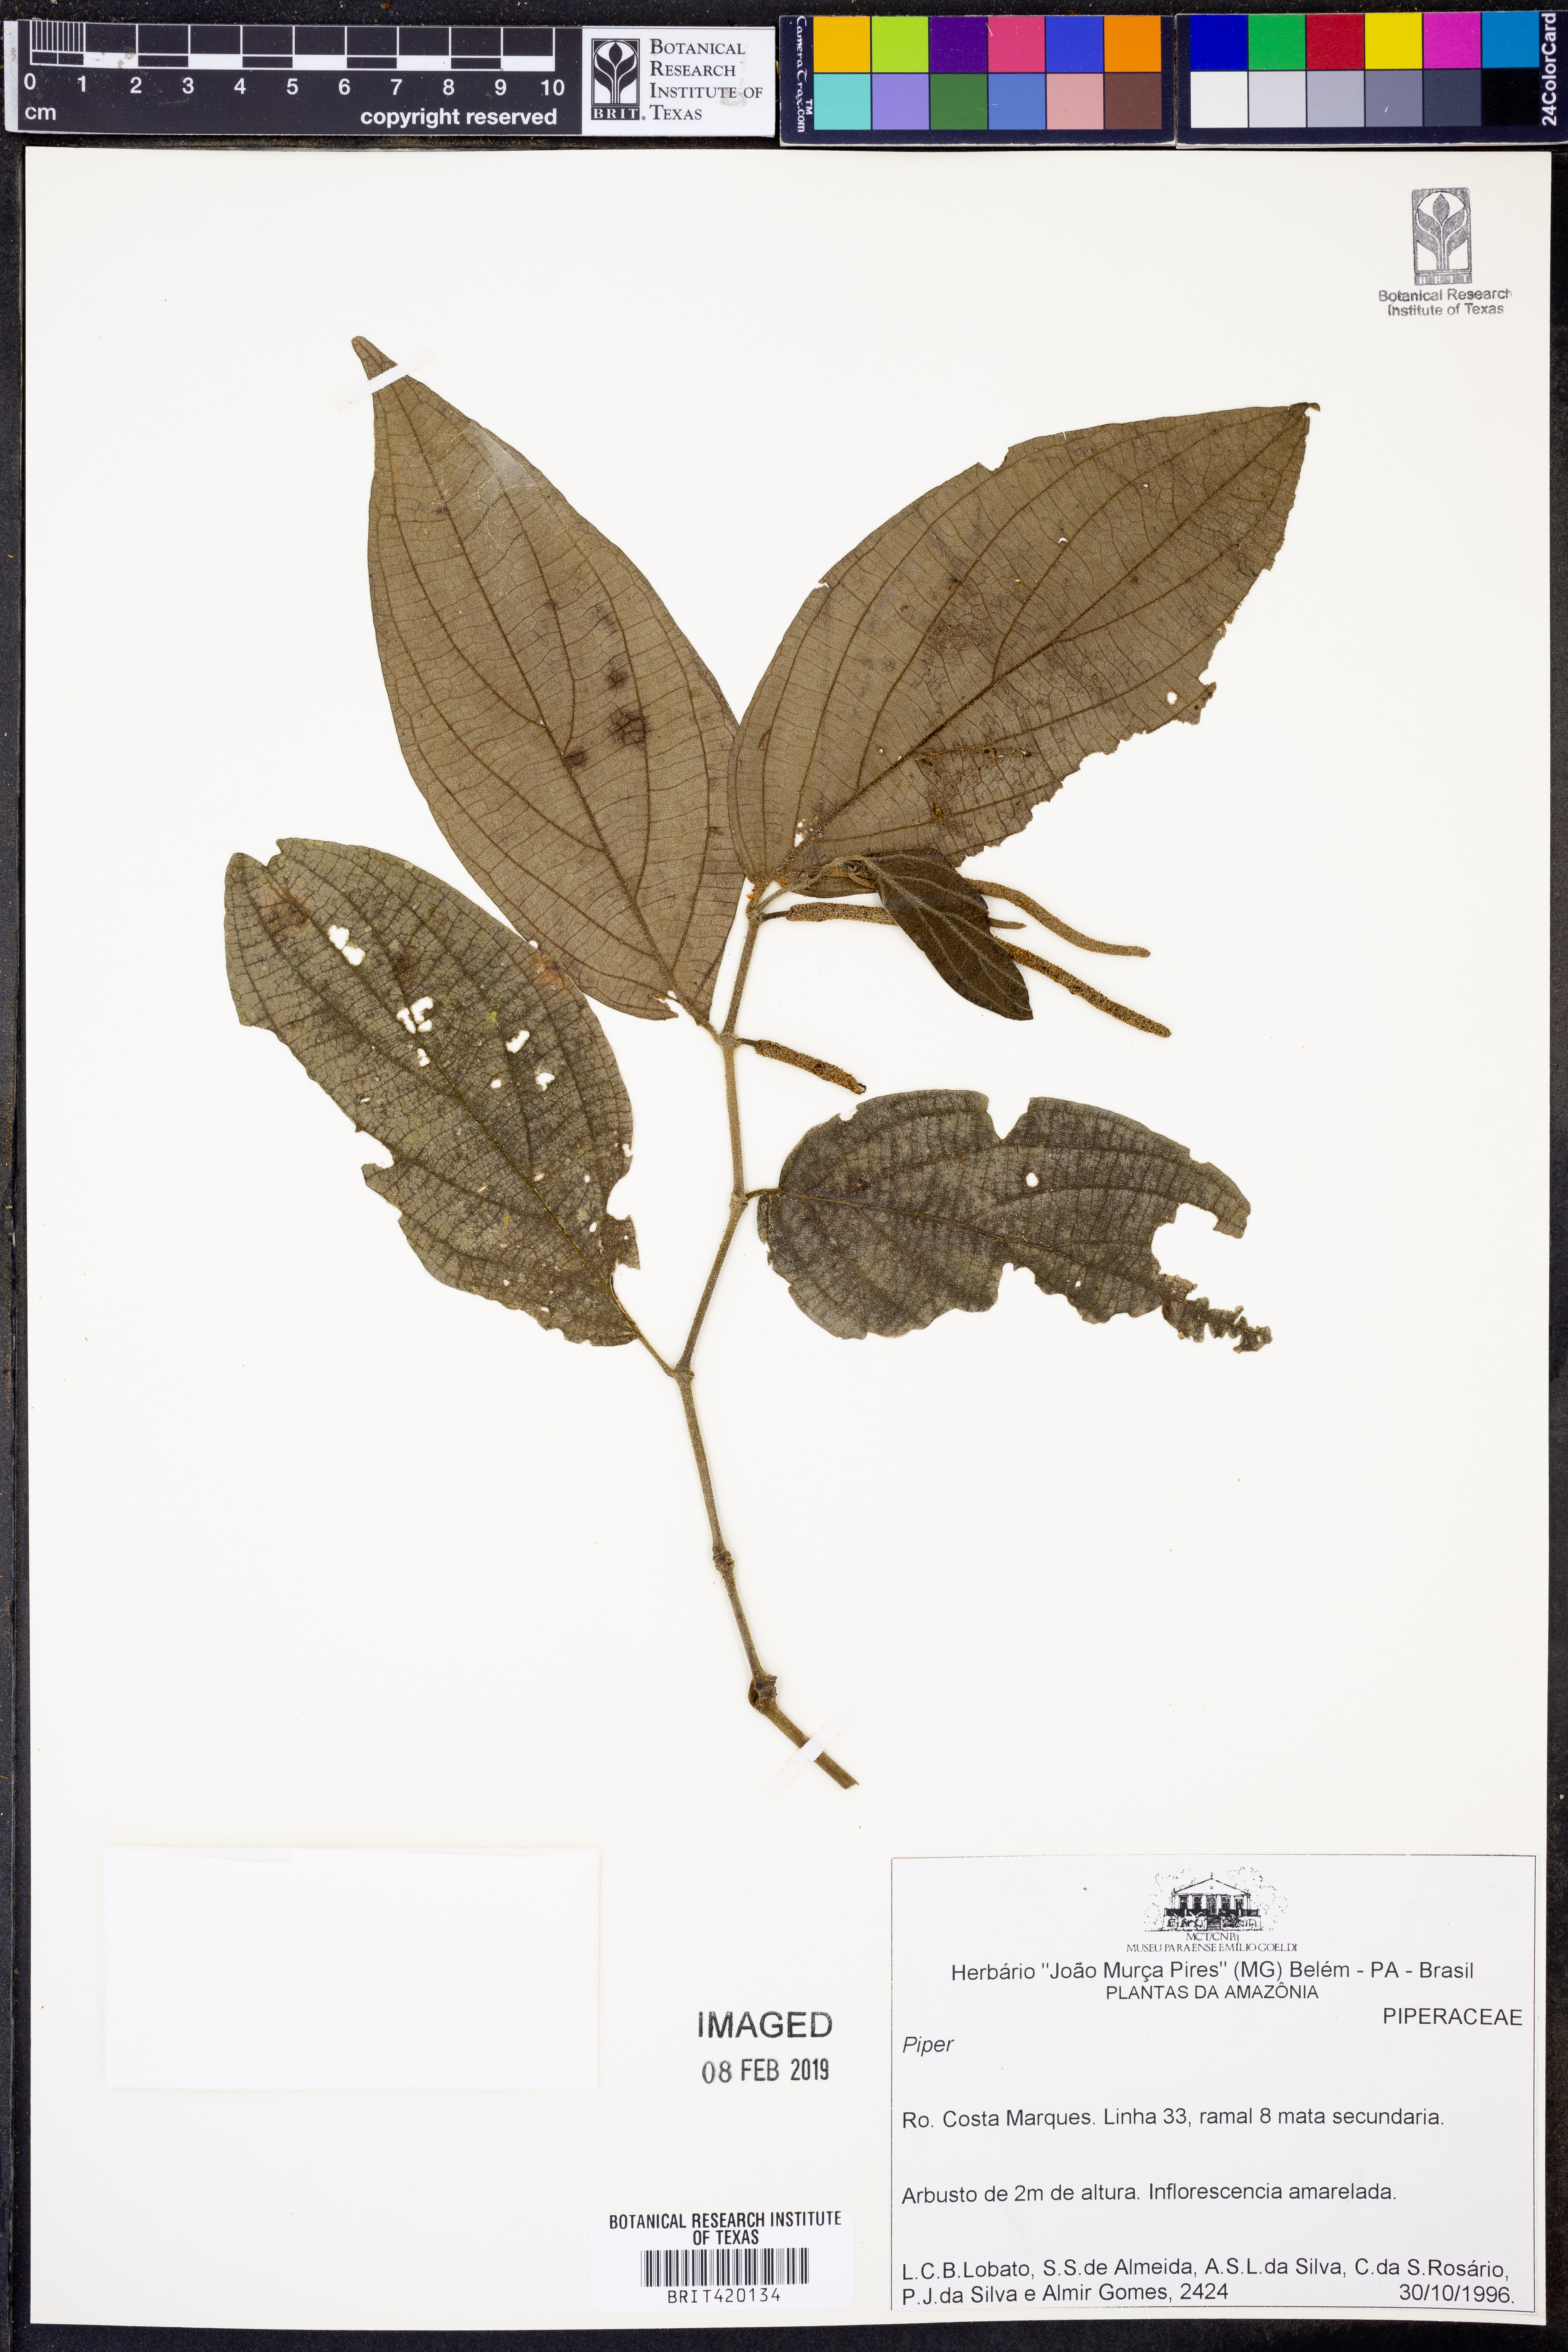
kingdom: Plantae
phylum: Tracheophyta
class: Magnoliopsida
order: Piperales
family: Piperaceae
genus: Piper
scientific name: Piper
